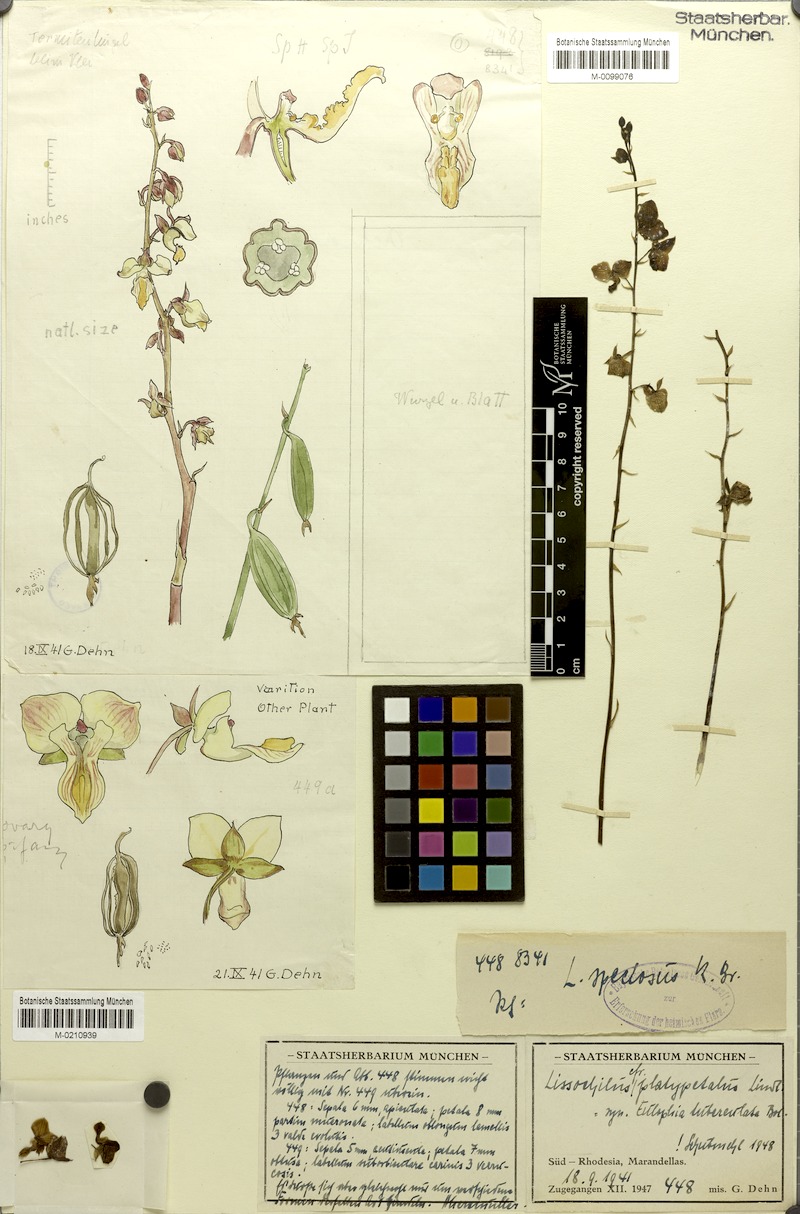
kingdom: Plantae
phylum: Tracheophyta
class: Liliopsida
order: Asparagales
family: Orchidaceae
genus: Eulophia
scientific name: Eulophia platypetala
